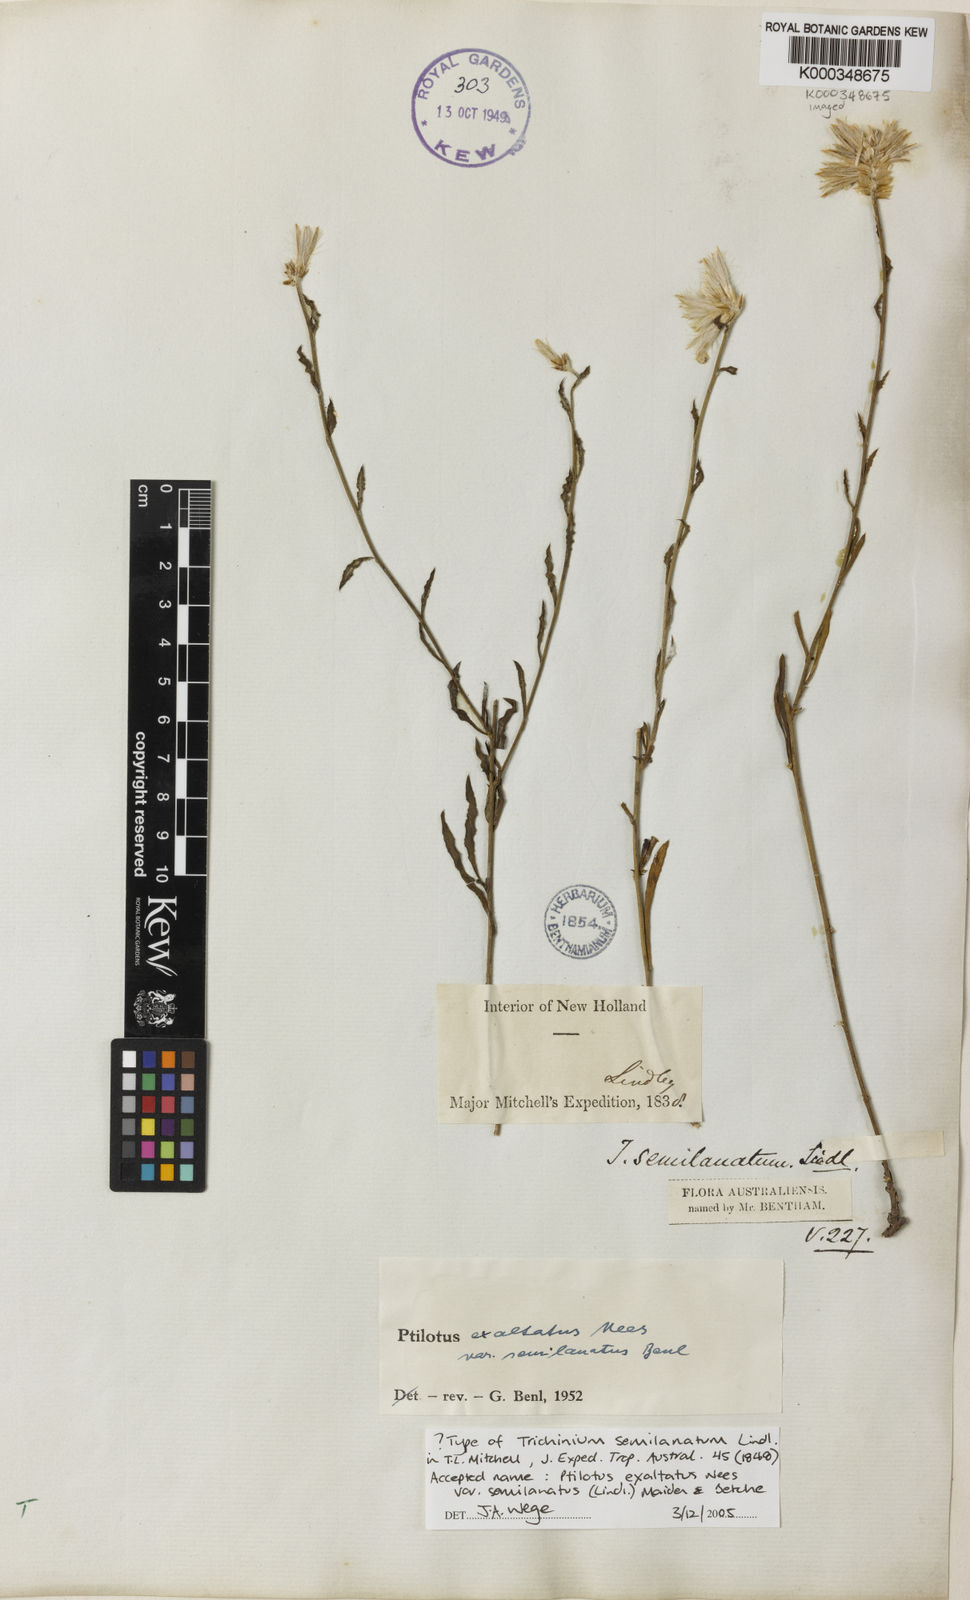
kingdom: Plantae
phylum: Tracheophyta
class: Magnoliopsida
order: Caryophyllales
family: Amaranthaceae
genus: Ptilotus
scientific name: Ptilotus semilanatus
